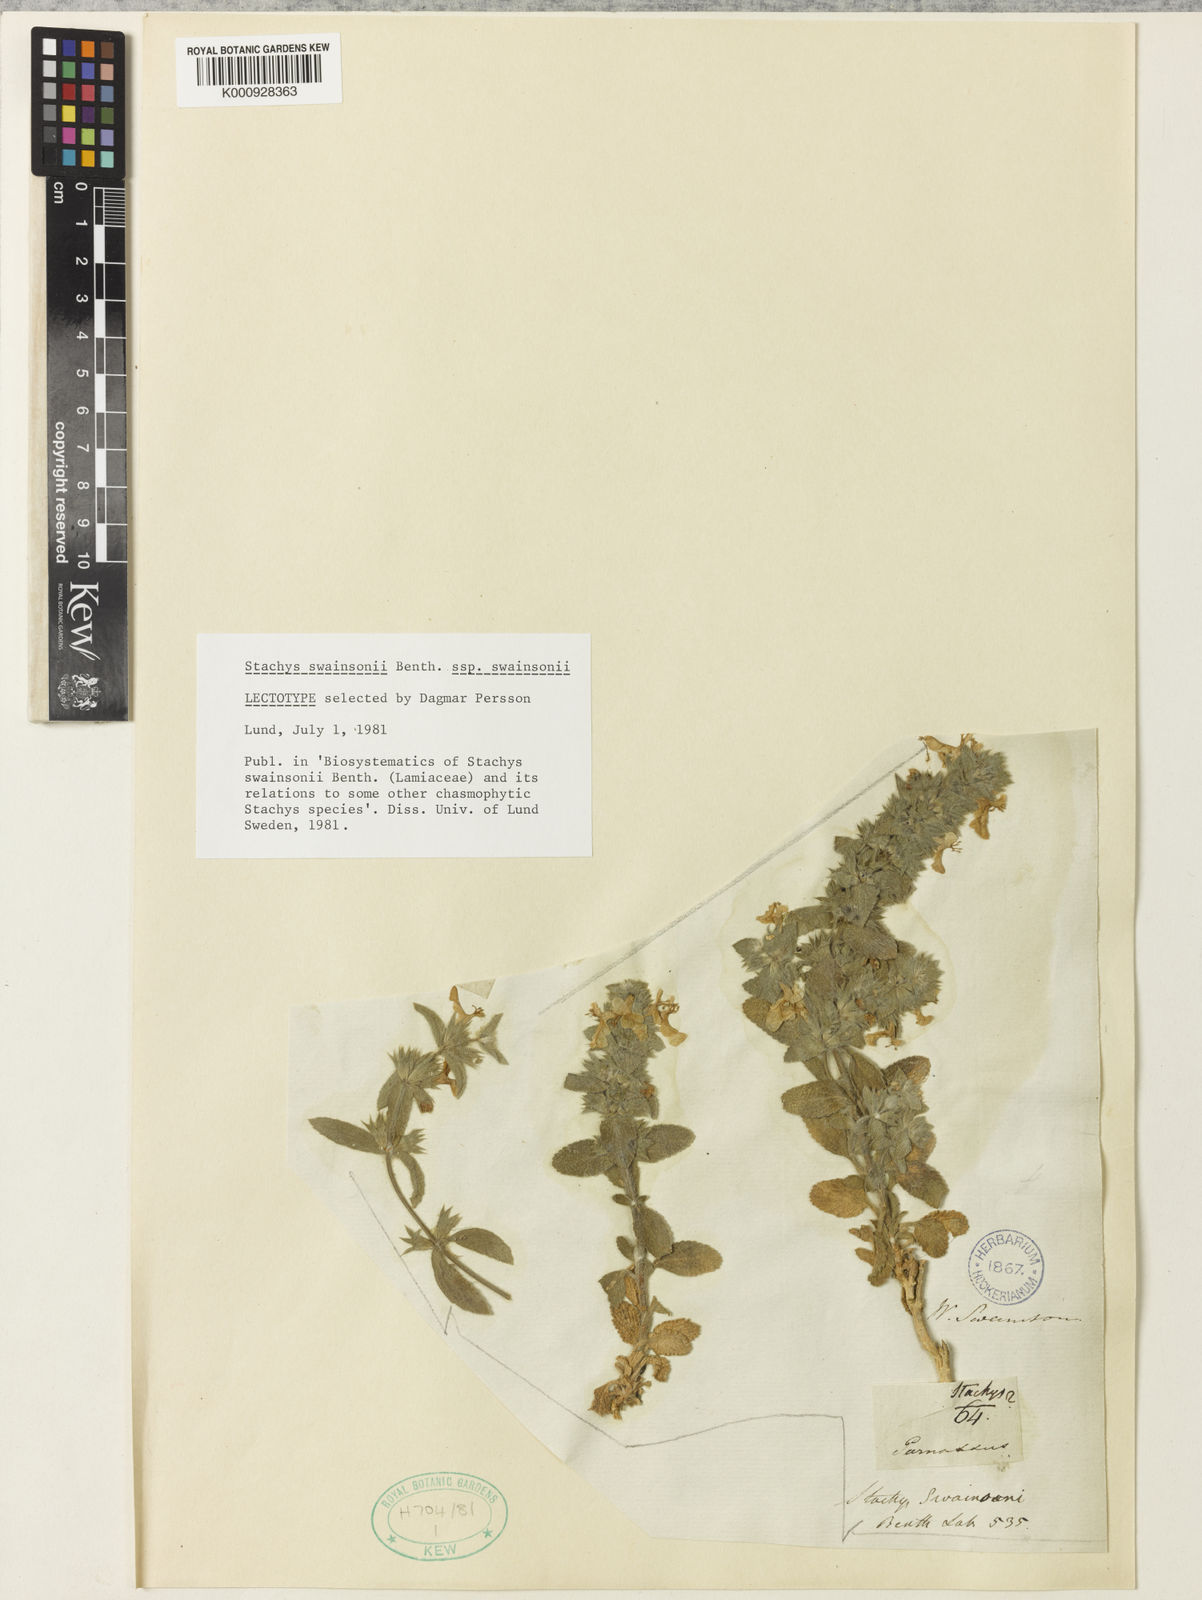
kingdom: Plantae
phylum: Tracheophyta
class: Magnoliopsida
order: Lamiales
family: Lamiaceae
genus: Stachys
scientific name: Stachys swainsonii
